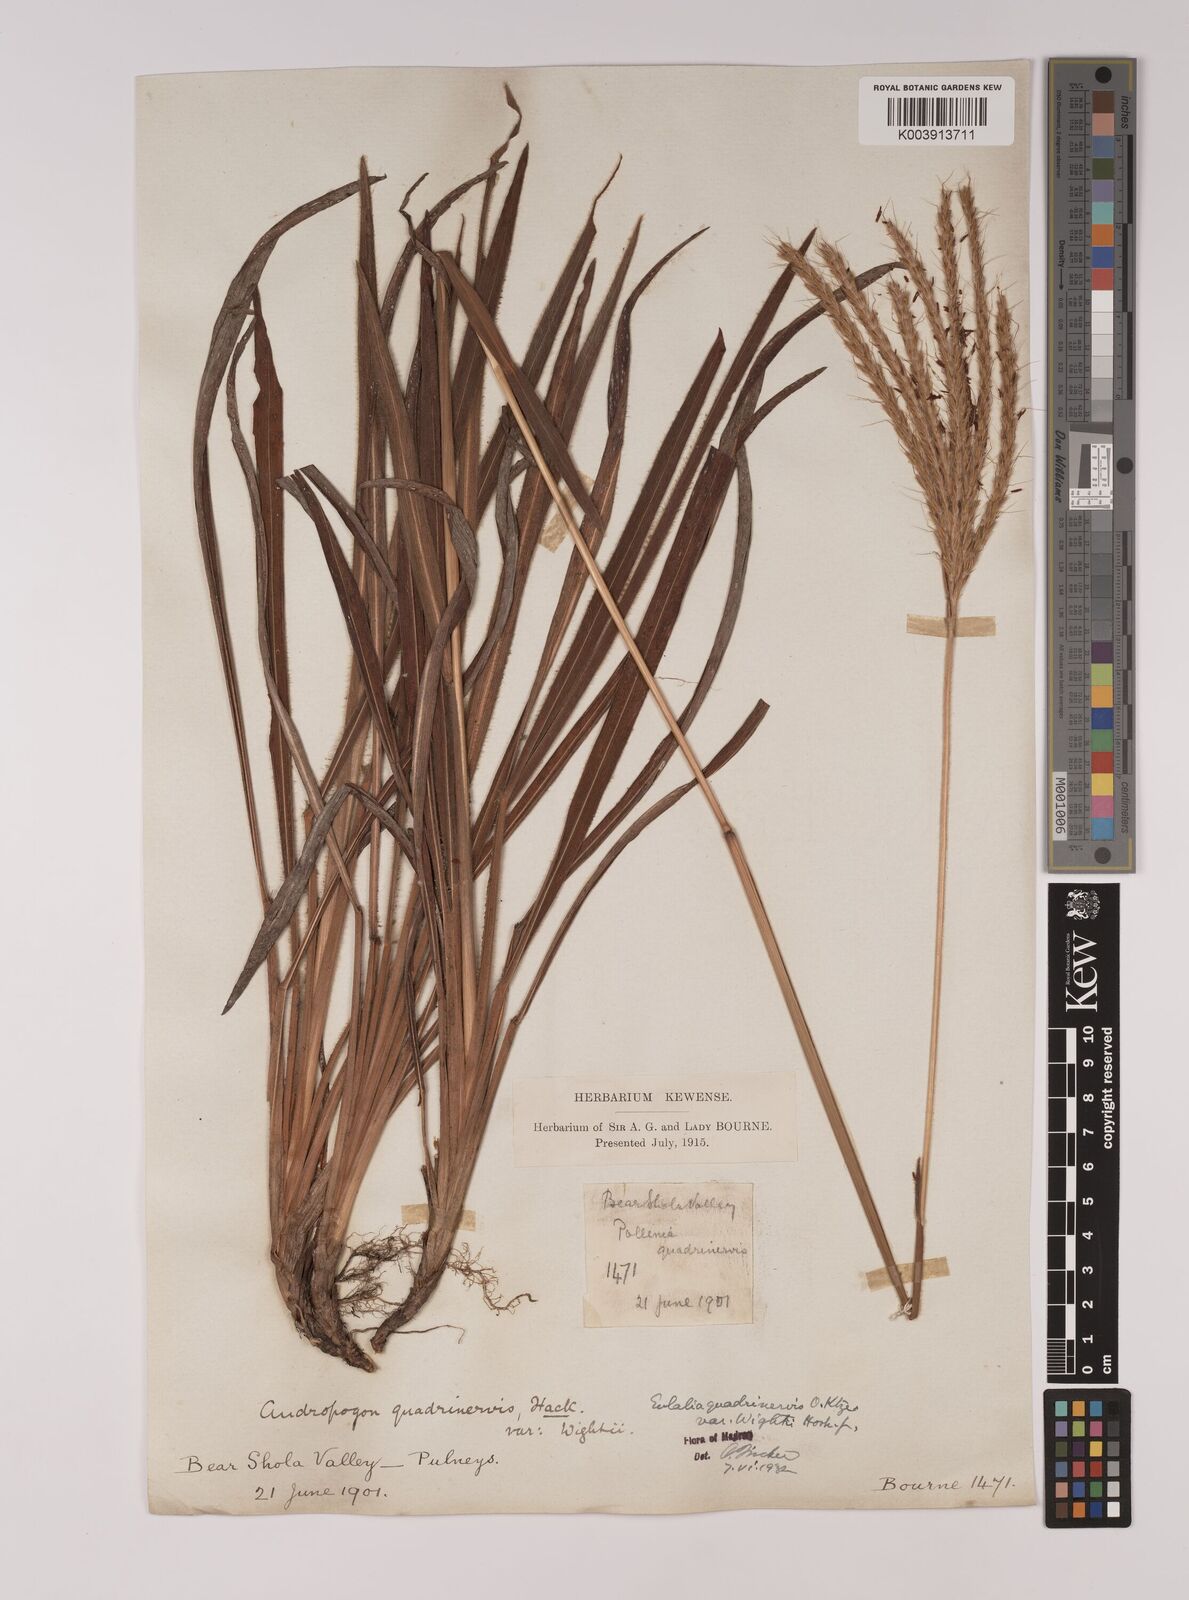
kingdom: Plantae
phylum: Tracheophyta
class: Liliopsida
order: Poales
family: Poaceae
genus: Eulalia
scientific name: Eulalia villosa
